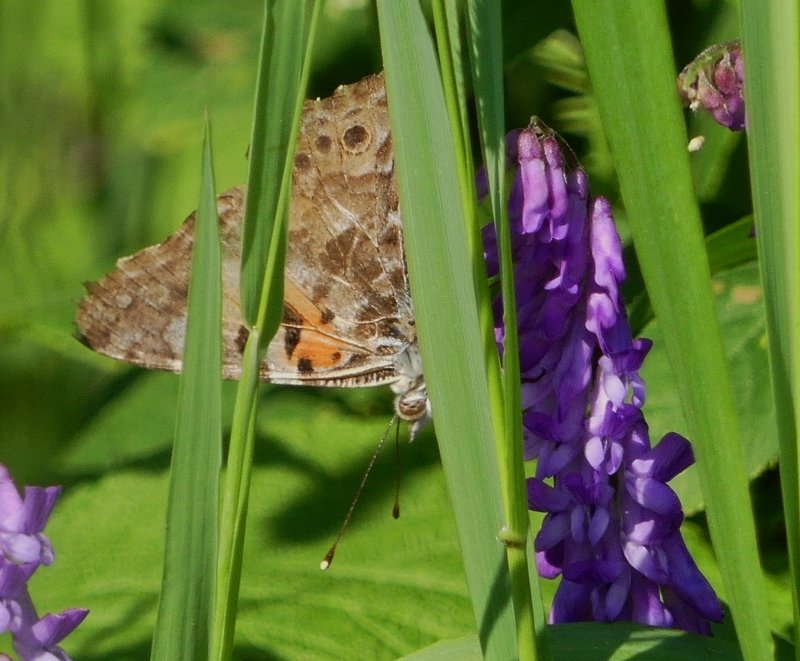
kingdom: Animalia
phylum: Arthropoda
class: Insecta
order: Lepidoptera
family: Nymphalidae
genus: Vanessa
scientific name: Vanessa cardui
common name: Painted Lady
